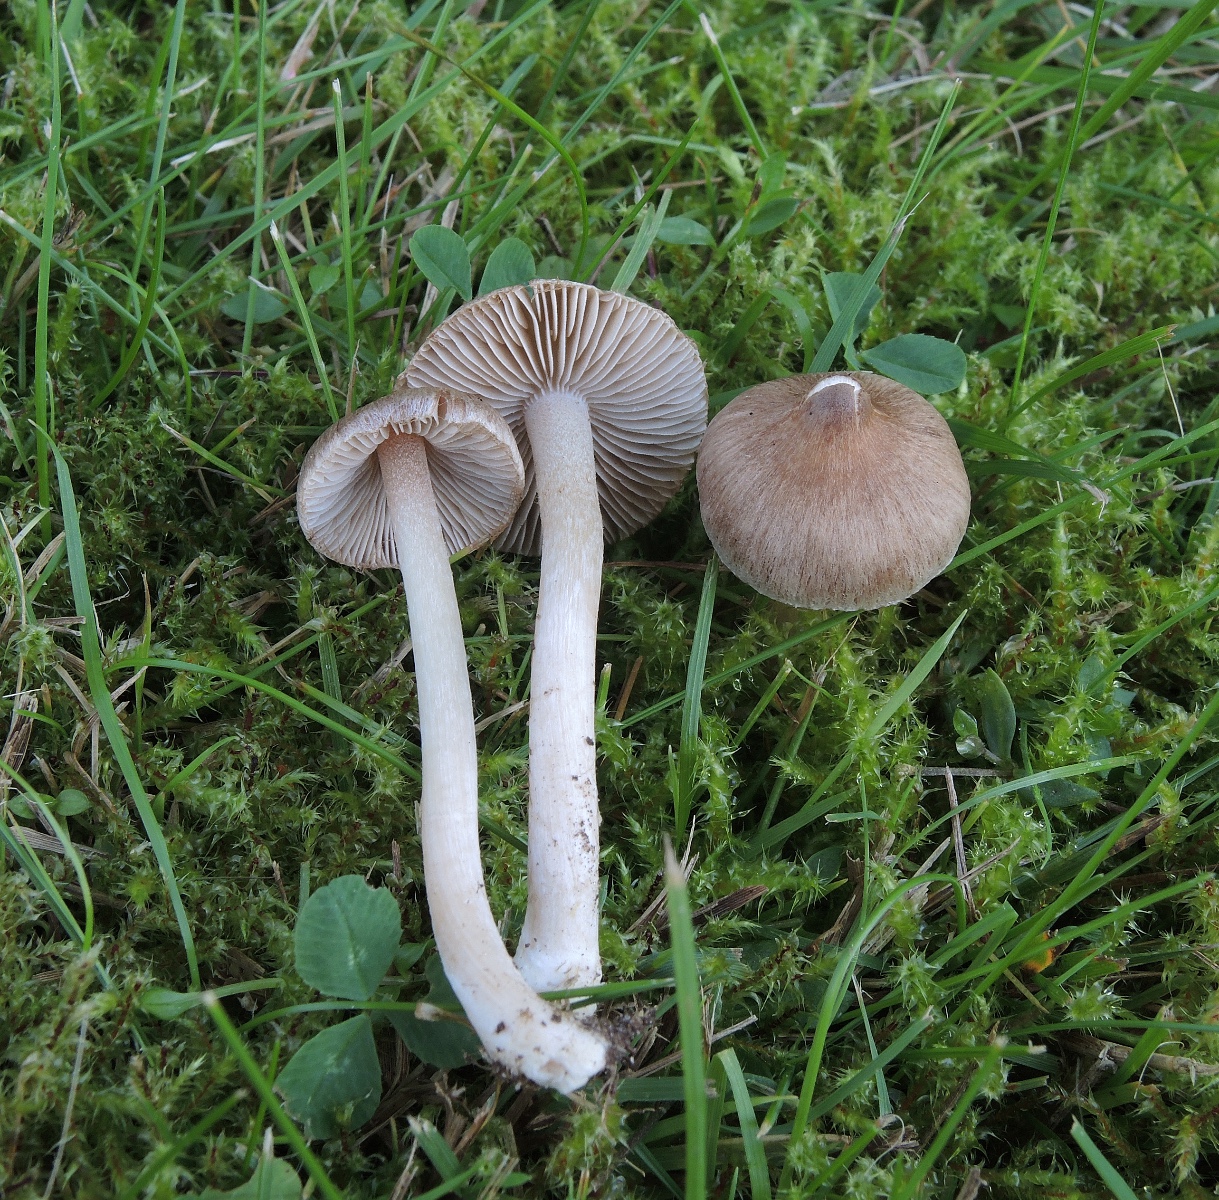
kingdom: Fungi
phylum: Basidiomycota
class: Agaricomycetes
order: Agaricales
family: Inocybaceae
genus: Inocybe
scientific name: Inocybe astraiana
